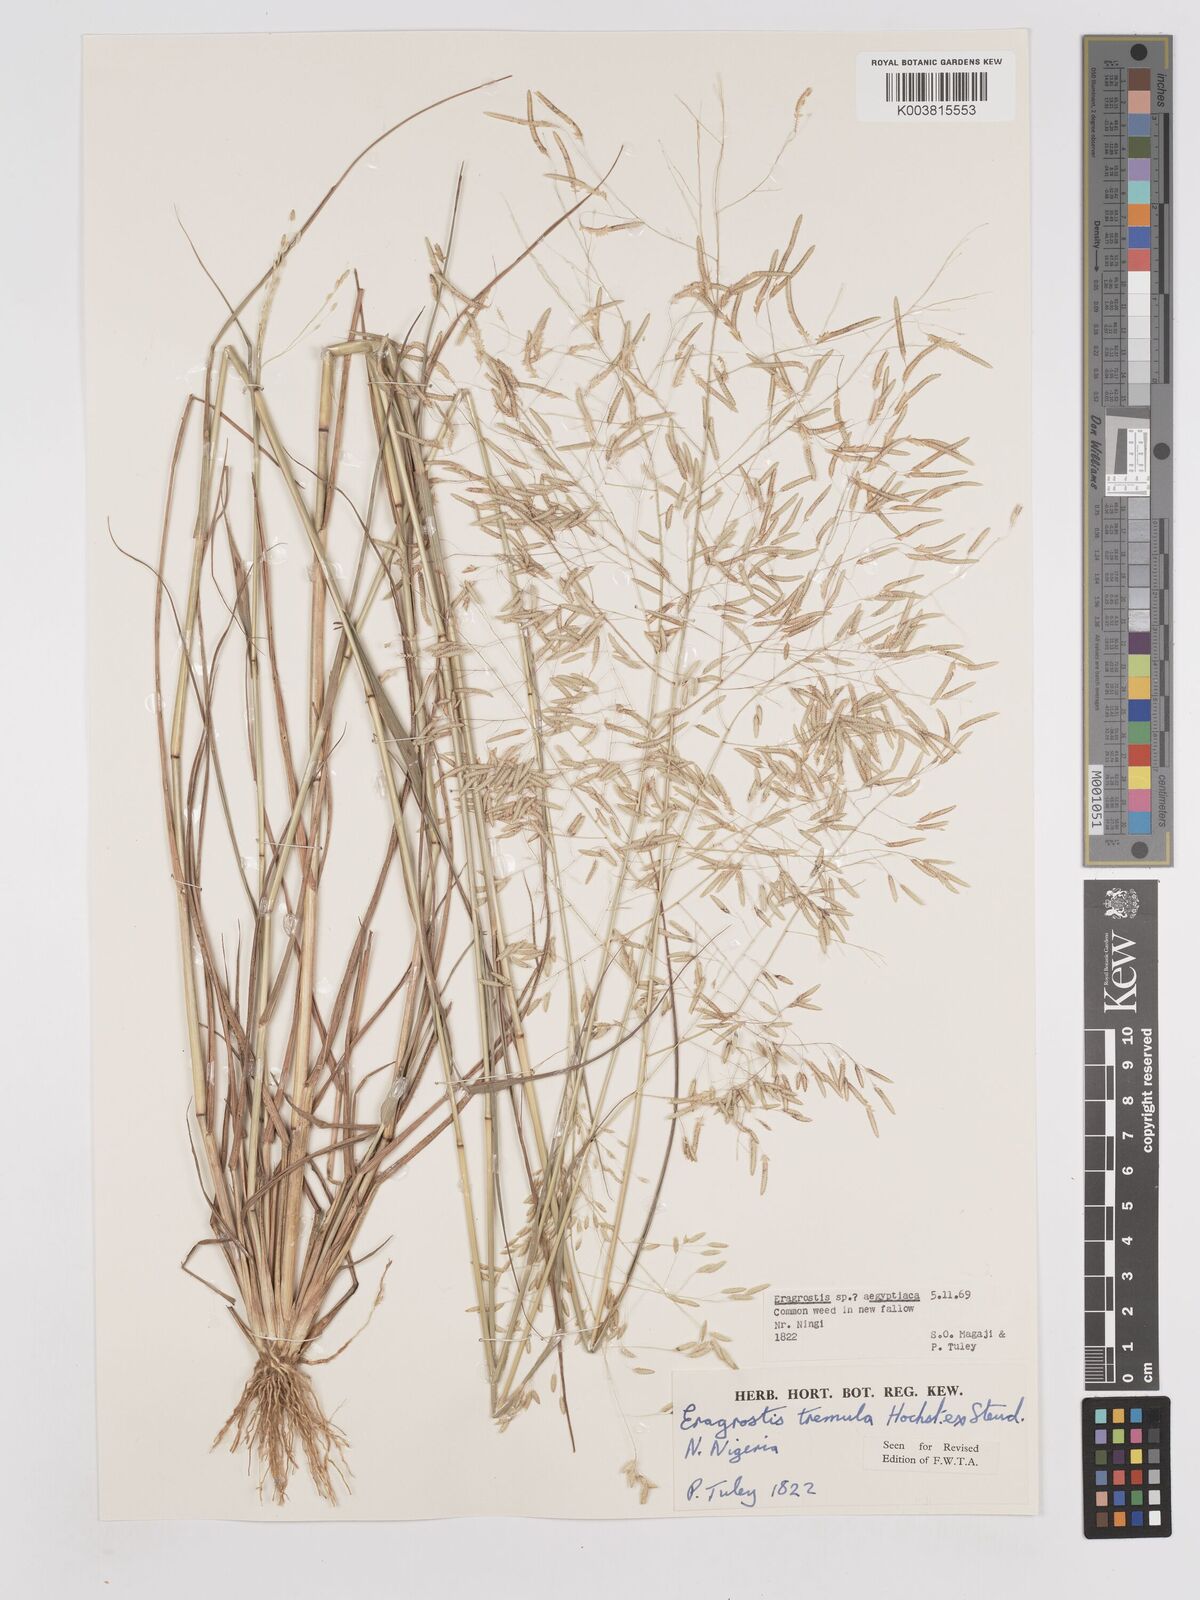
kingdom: Plantae
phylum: Tracheophyta
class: Liliopsida
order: Poales
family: Poaceae
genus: Eragrostis
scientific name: Eragrostis tremula
